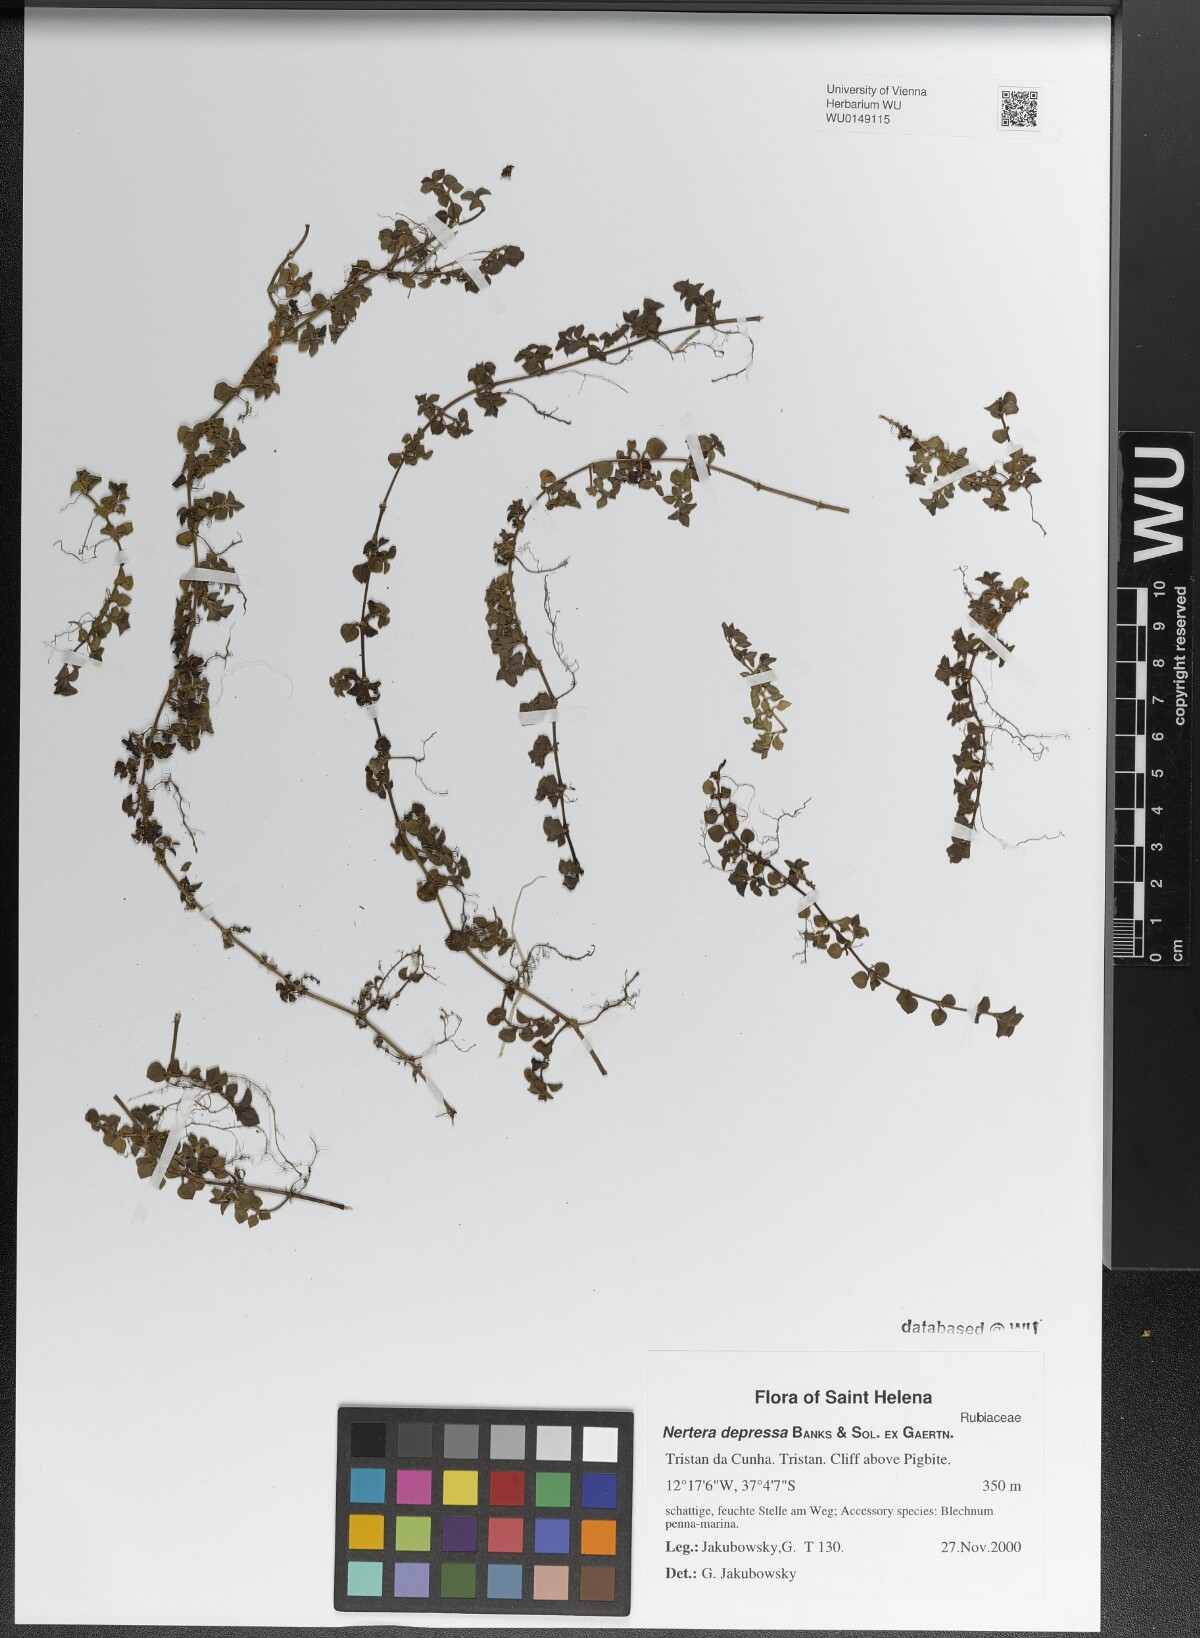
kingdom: Plantae
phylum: Tracheophyta
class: Magnoliopsida
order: Gentianales
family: Rubiaceae
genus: Nertera
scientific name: Nertera granadensis
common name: Beadplant
